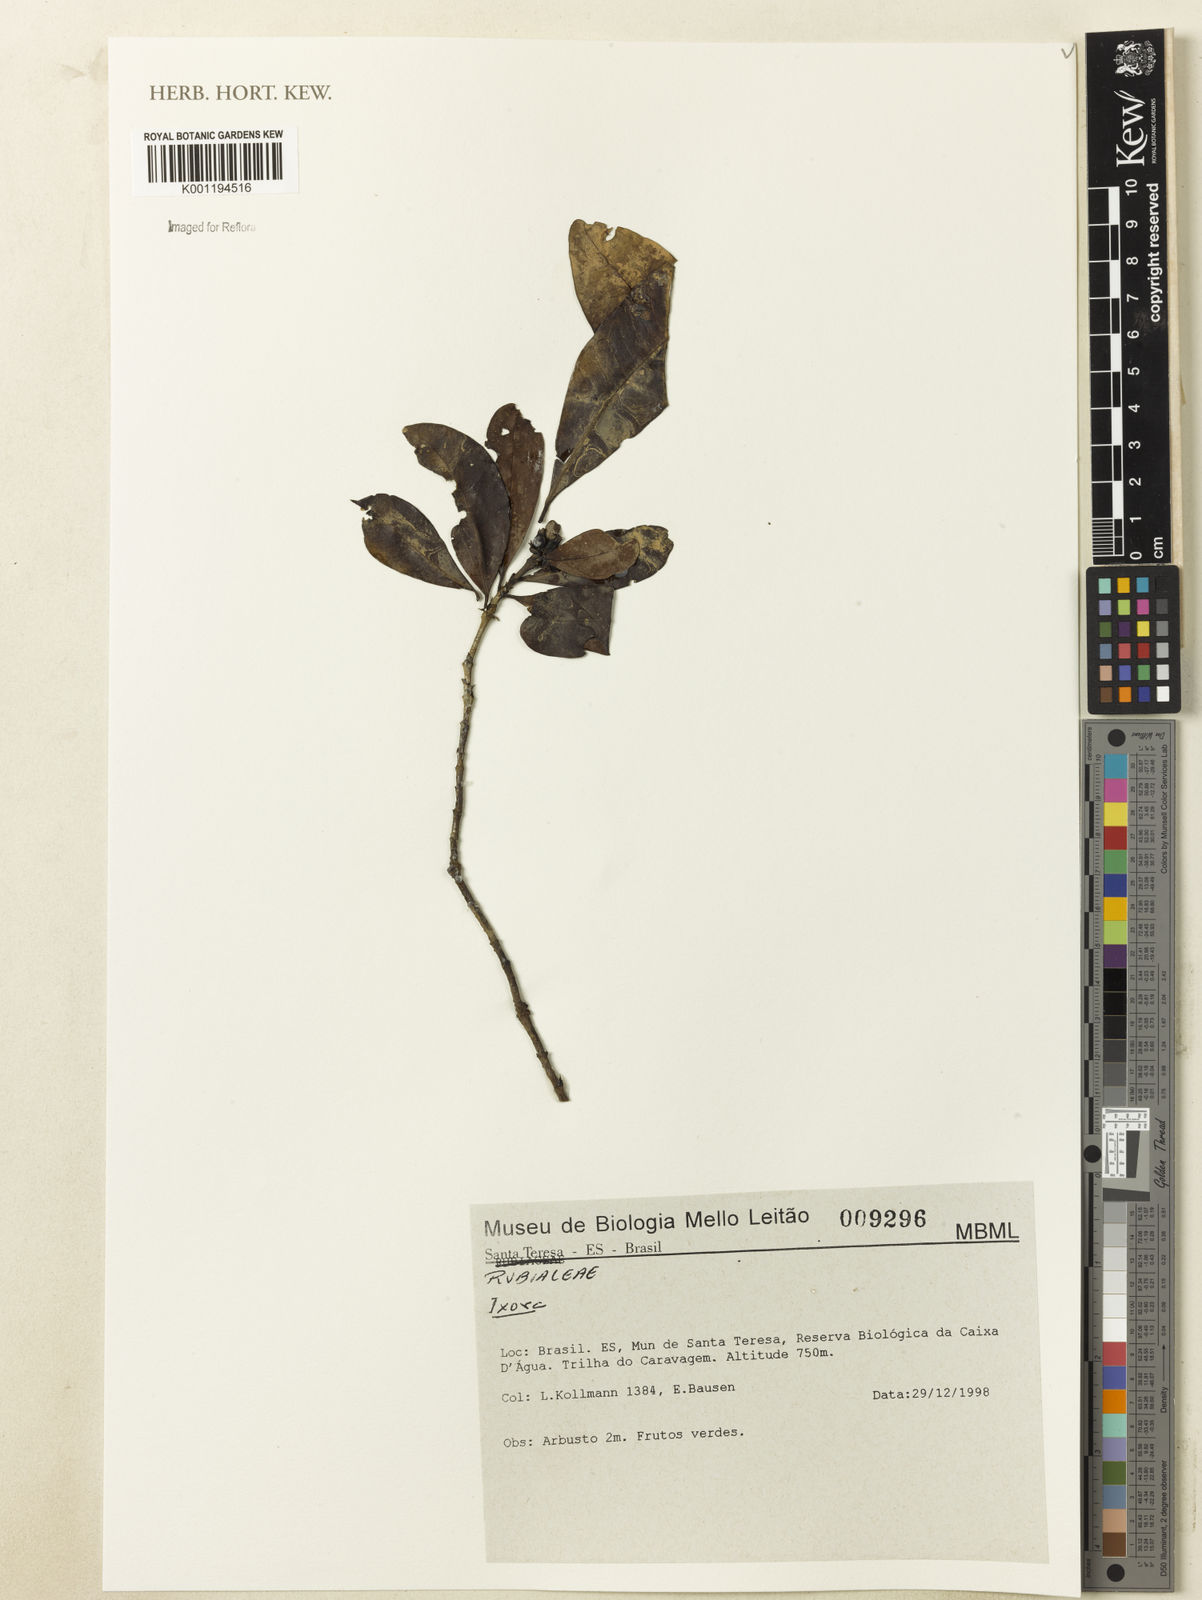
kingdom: Plantae
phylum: Tracheophyta
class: Magnoliopsida
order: Gentianales
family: Rubiaceae
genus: Ixora
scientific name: Ixora
